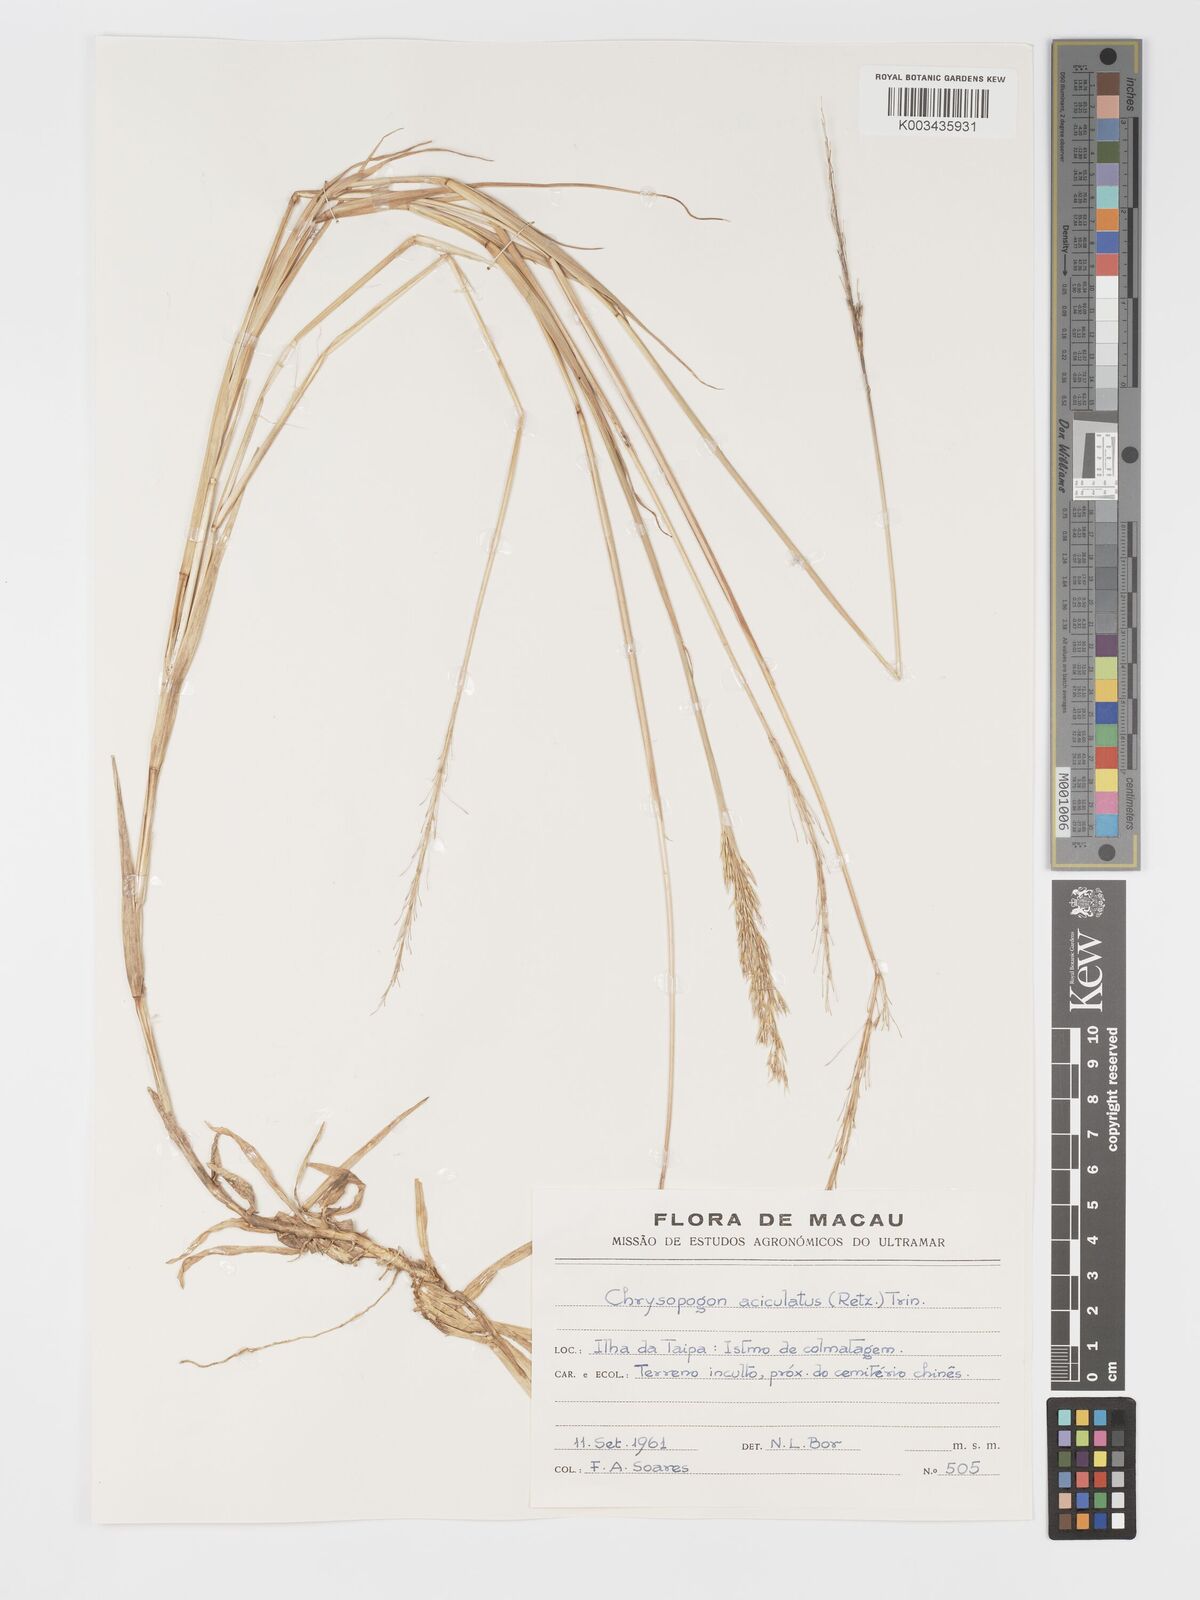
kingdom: Plantae
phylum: Tracheophyta
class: Liliopsida
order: Poales
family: Poaceae
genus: Chrysopogon
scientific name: Chrysopogon aciculatus
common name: Pilipiliula
